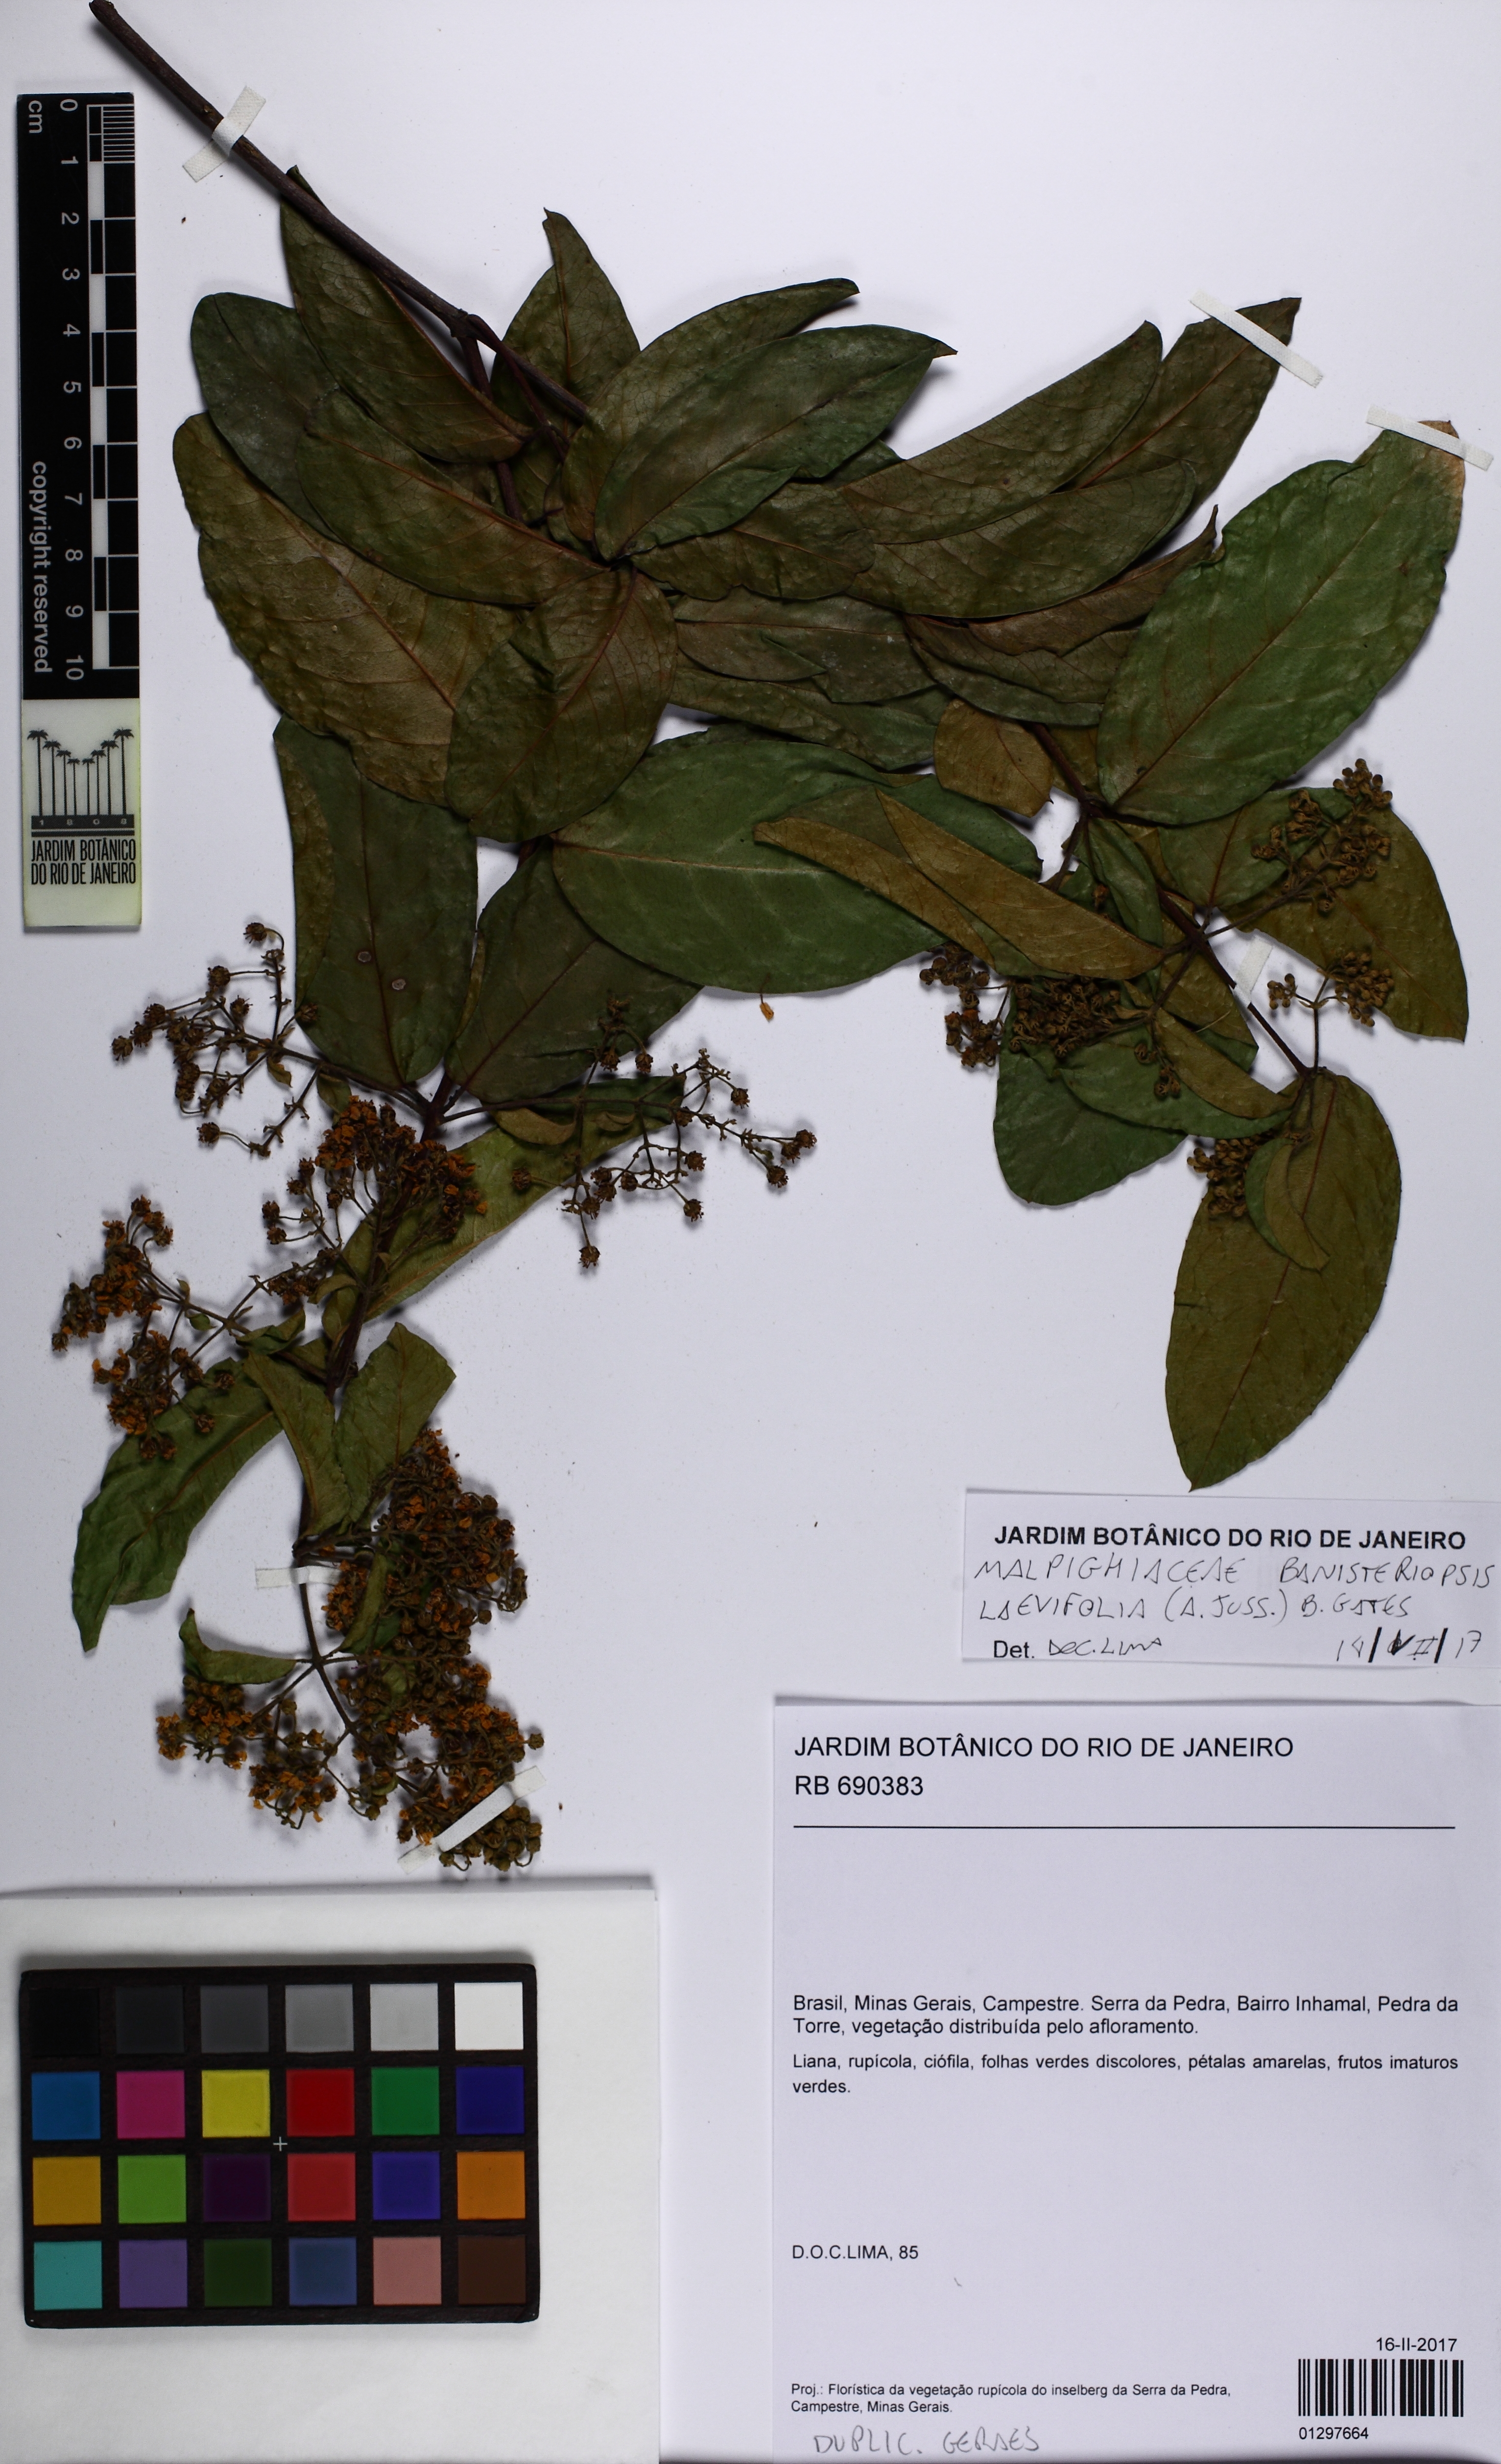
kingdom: Plantae
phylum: Tracheophyta
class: Magnoliopsida
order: Malpighiales
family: Malpighiaceae
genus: Banisteriopsis
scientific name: Banisteriopsis laevifolia
